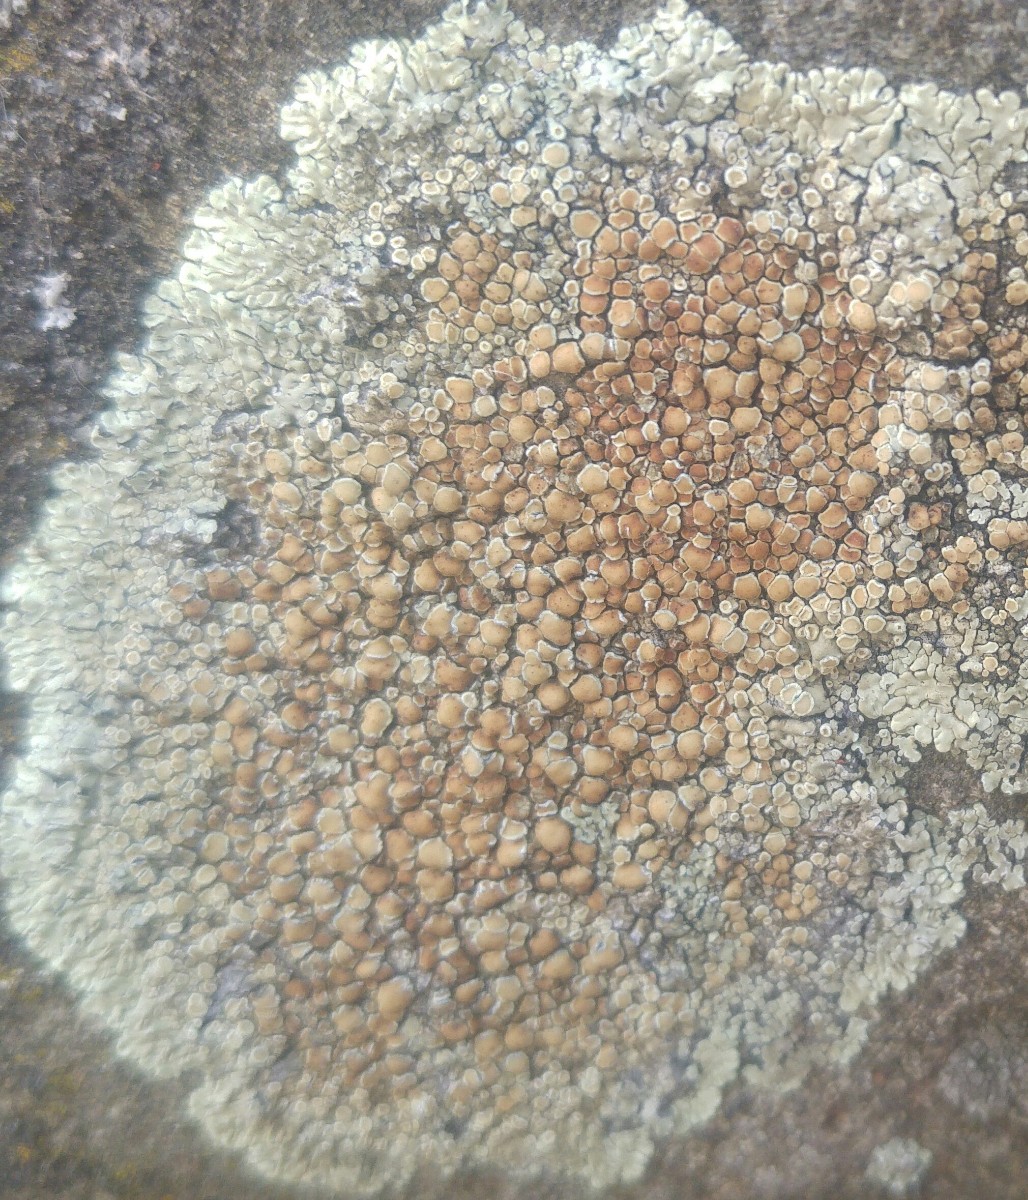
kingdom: Fungi
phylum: Ascomycota
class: Lecanoromycetes
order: Lecanorales
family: Lecanoraceae
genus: Protoparmeliopsis
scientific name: Protoparmeliopsis muralis
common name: randfliget kantskivelav
